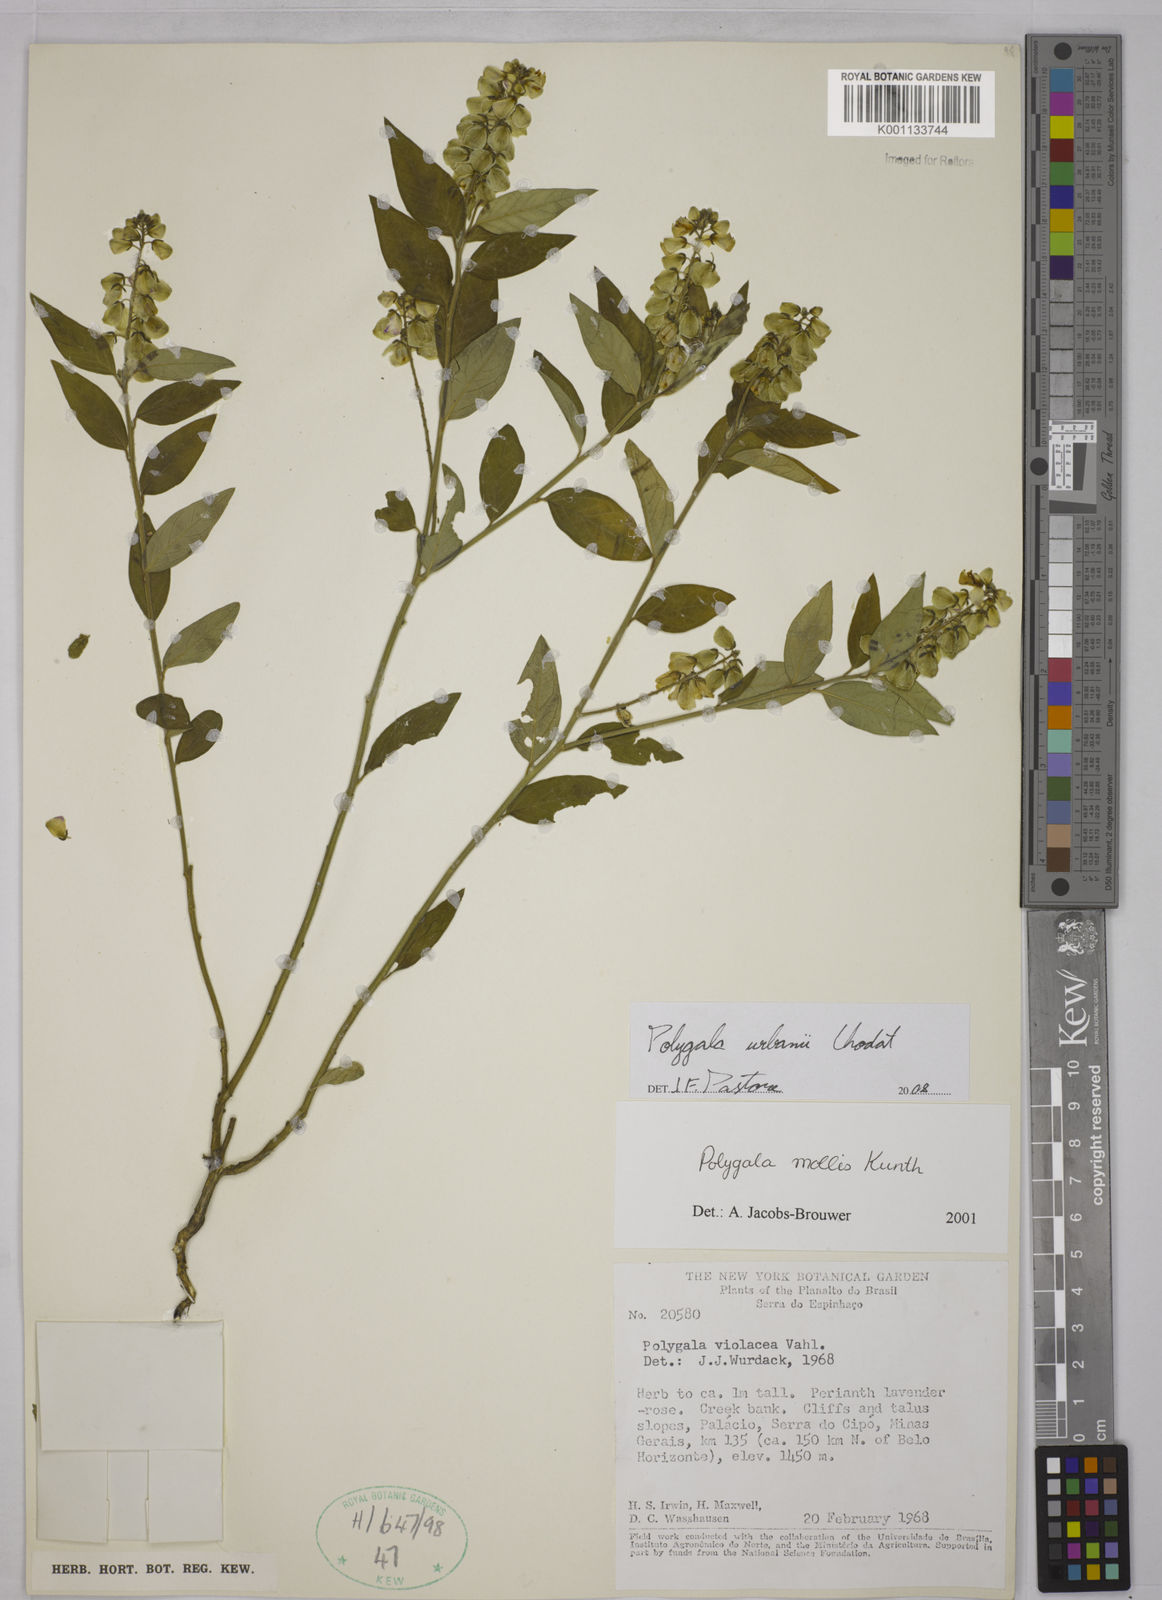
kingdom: Plantae
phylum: Tracheophyta
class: Magnoliopsida
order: Fabales
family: Polygalaceae
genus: Asemeia
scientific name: Asemeia monninoides
